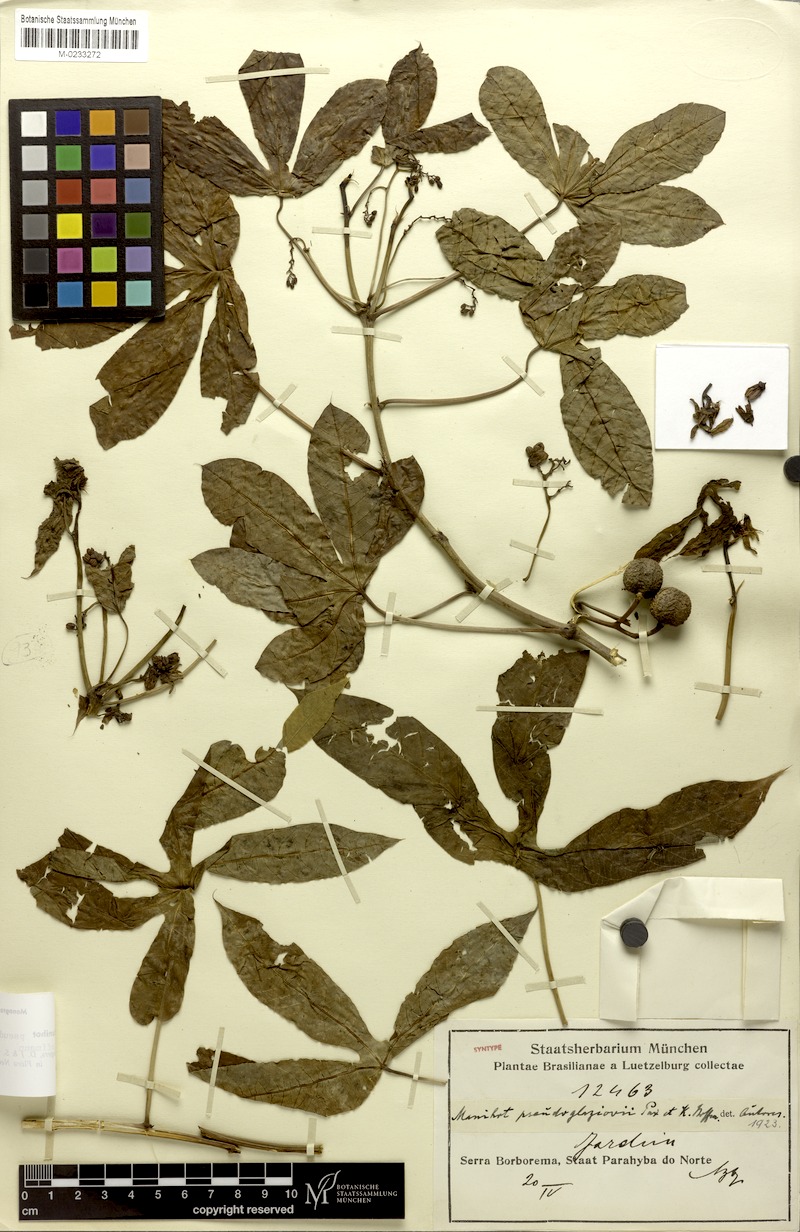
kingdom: Plantae
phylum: Tracheophyta
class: Magnoliopsida
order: Malpighiales
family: Euphorbiaceae
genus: Manihot
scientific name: Manihot carthaginensis
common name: Ceara rubbertree
